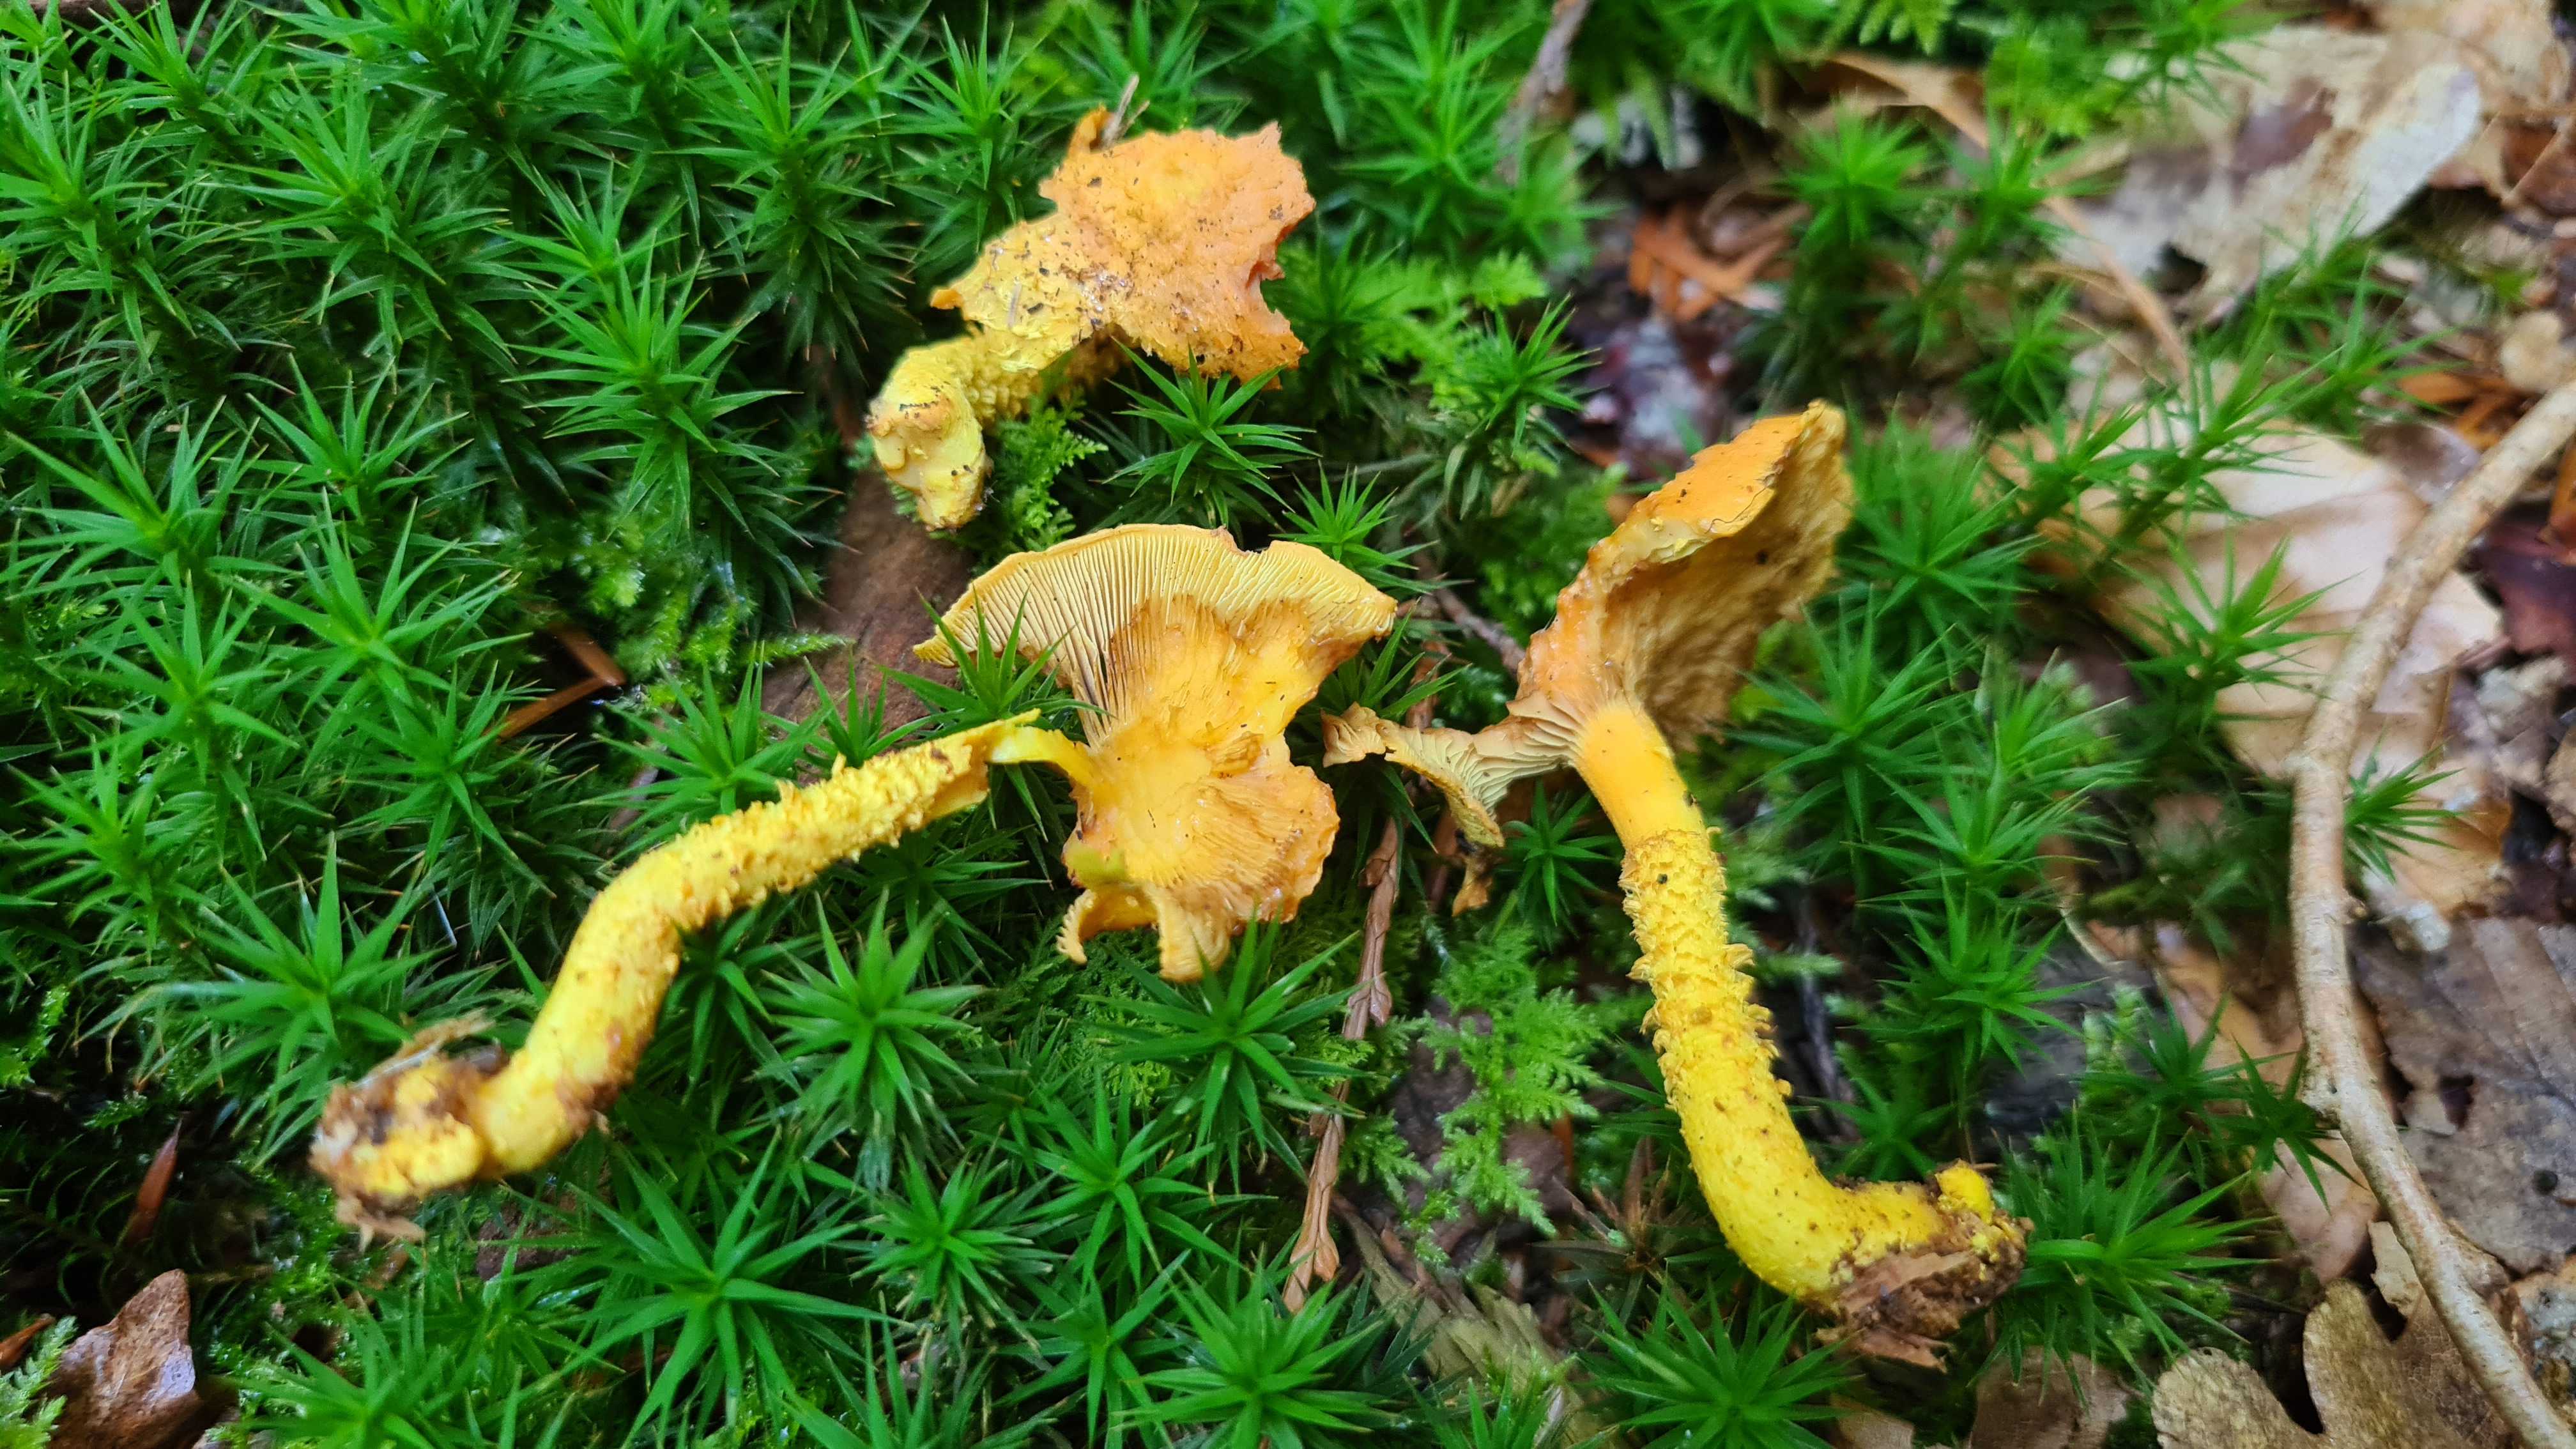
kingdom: Fungi
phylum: Basidiomycota
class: Agaricomycetes
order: Agaricales
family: Strophariaceae
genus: Pholiota
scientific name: Pholiota flammans
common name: flamme-skælhat
